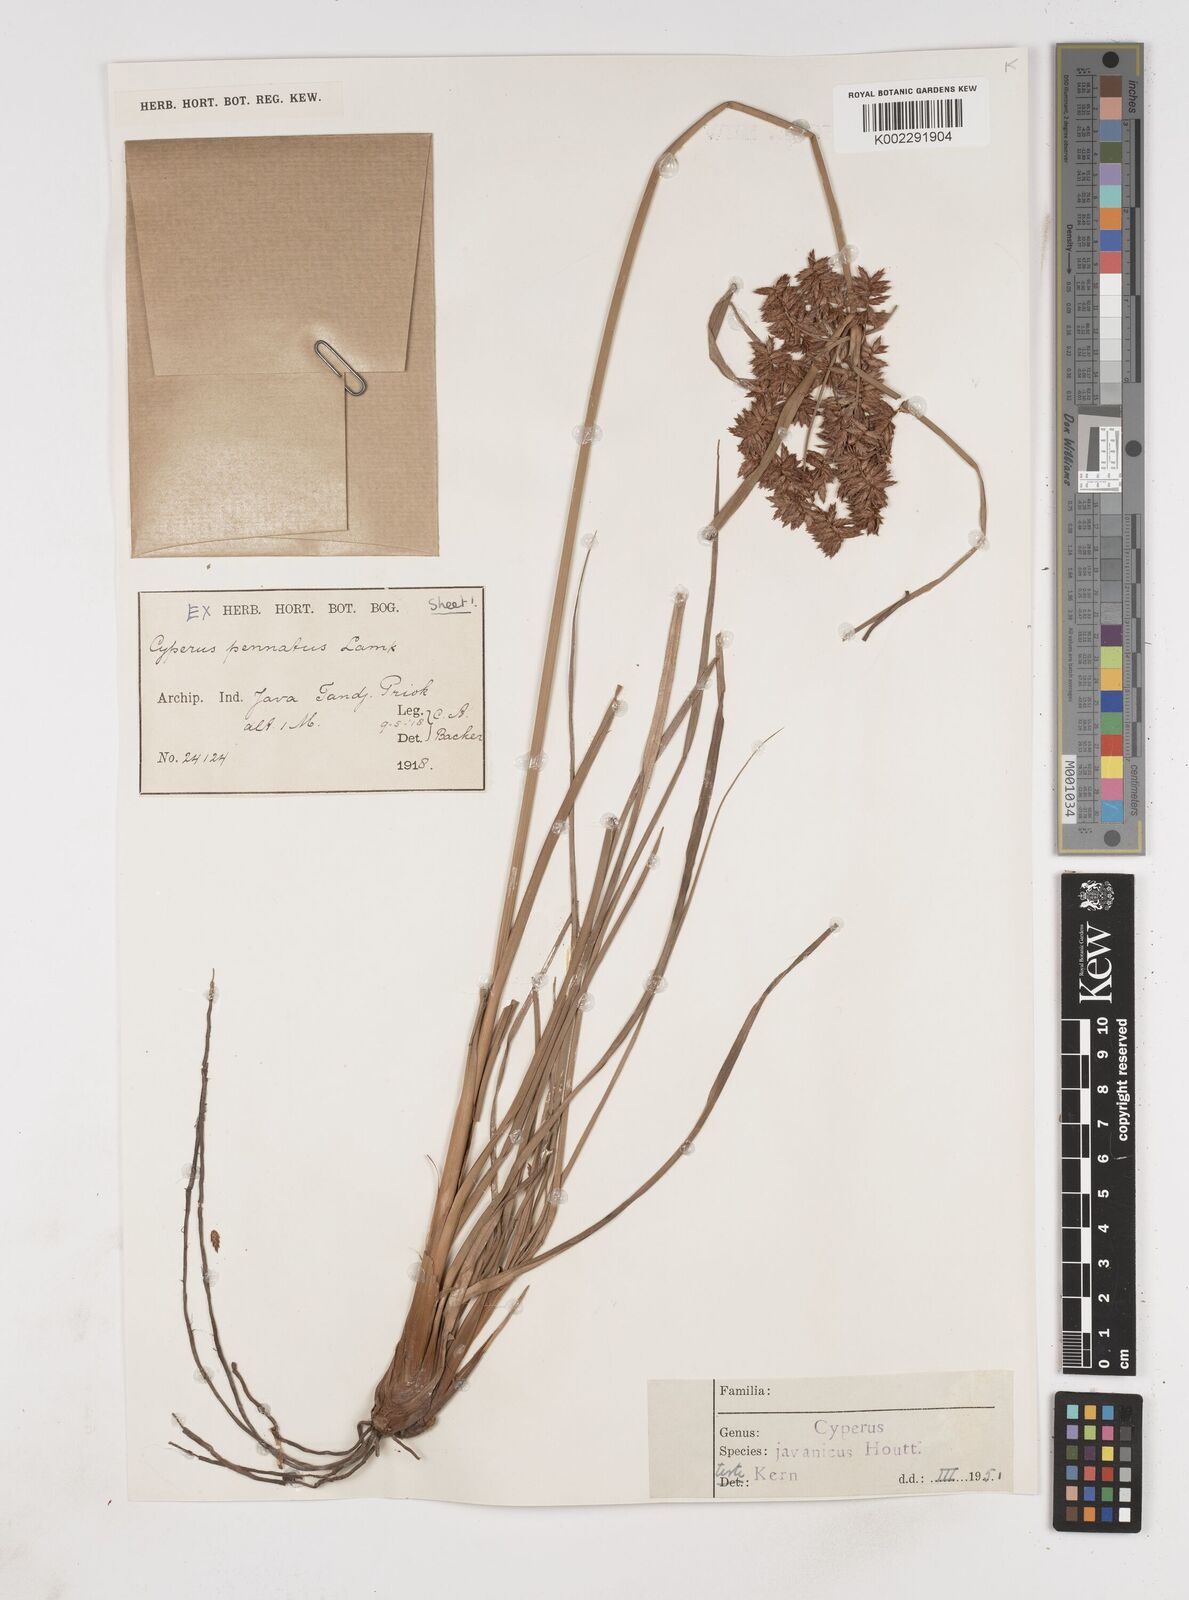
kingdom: Plantae
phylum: Tracheophyta
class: Liliopsida
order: Poales
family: Cyperaceae
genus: Cyperus
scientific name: Cyperus javanicus
